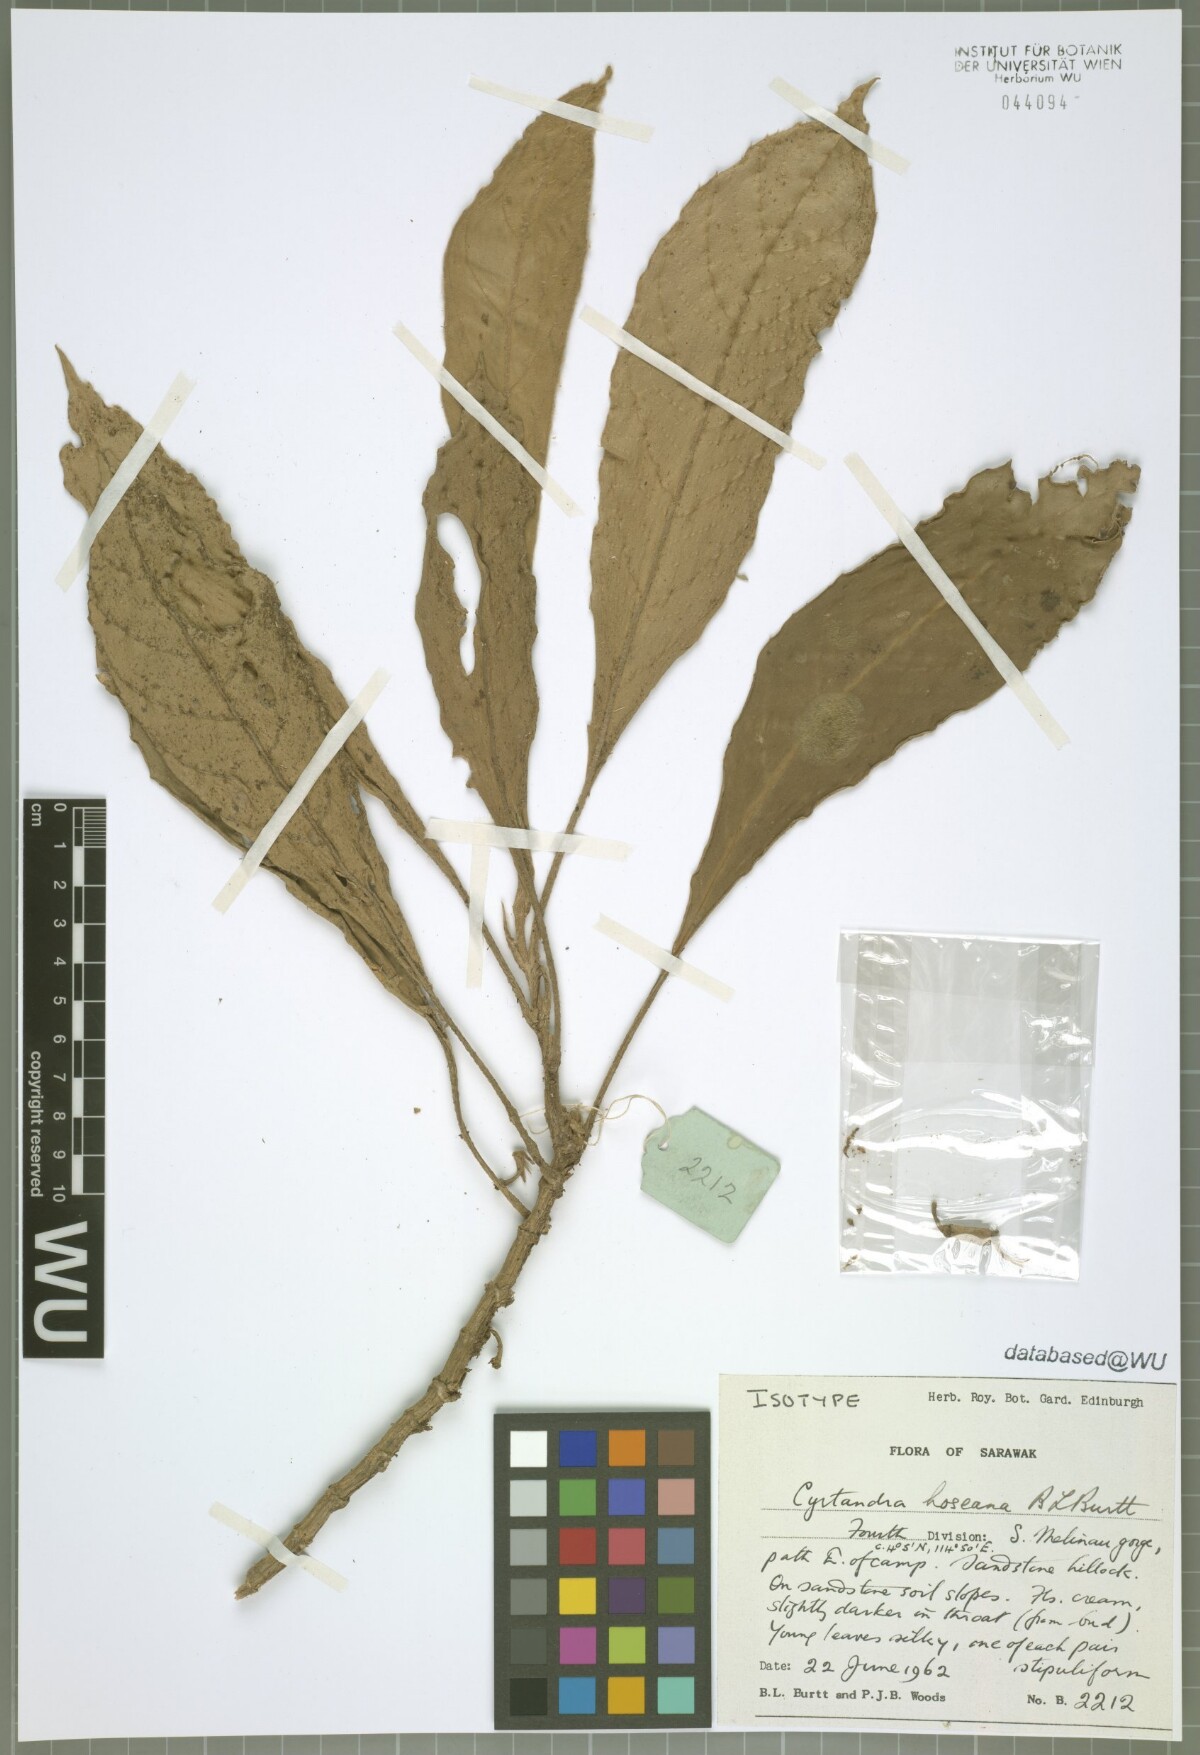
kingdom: Plantae
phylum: Tracheophyta
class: Magnoliopsida
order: Lamiales
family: Gesneriaceae
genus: Cyrtandra
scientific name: Cyrtandra hoseana
